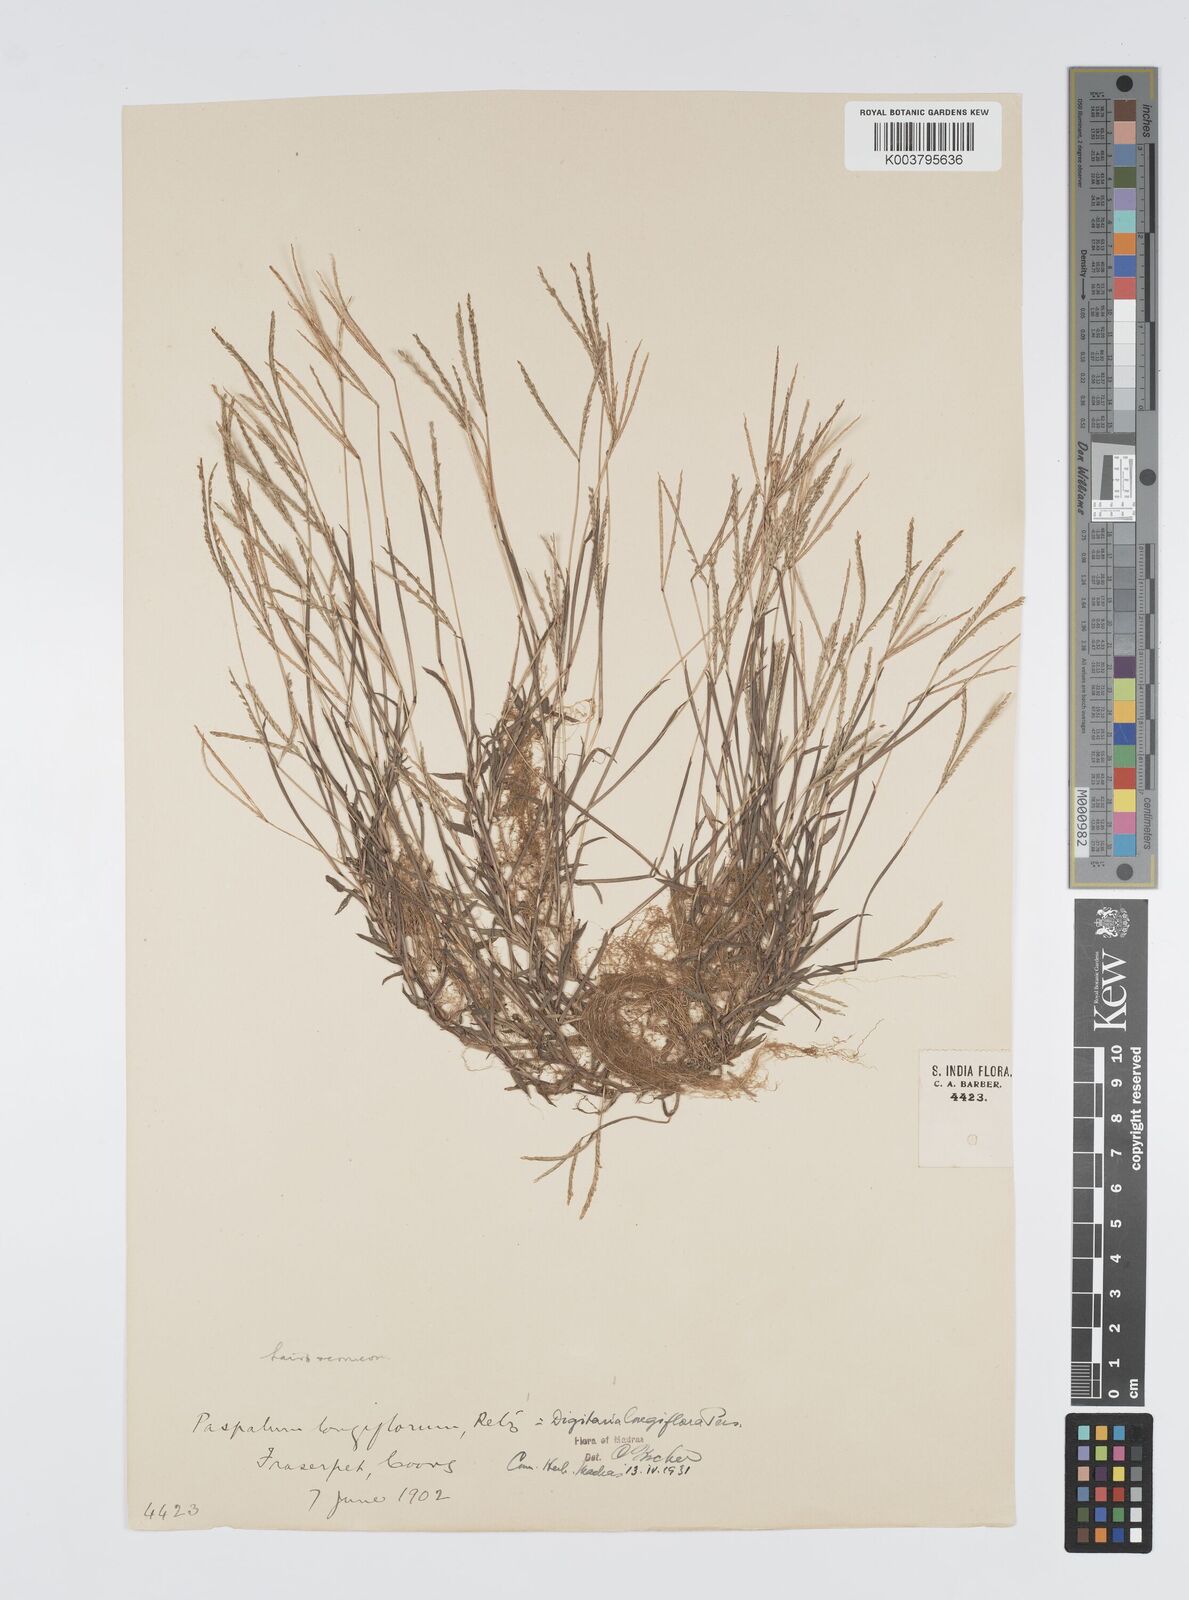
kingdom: Plantae
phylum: Tracheophyta
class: Liliopsida
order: Poales
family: Poaceae
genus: Digitaria
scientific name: Digitaria longiflora
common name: Wire crabgrass
